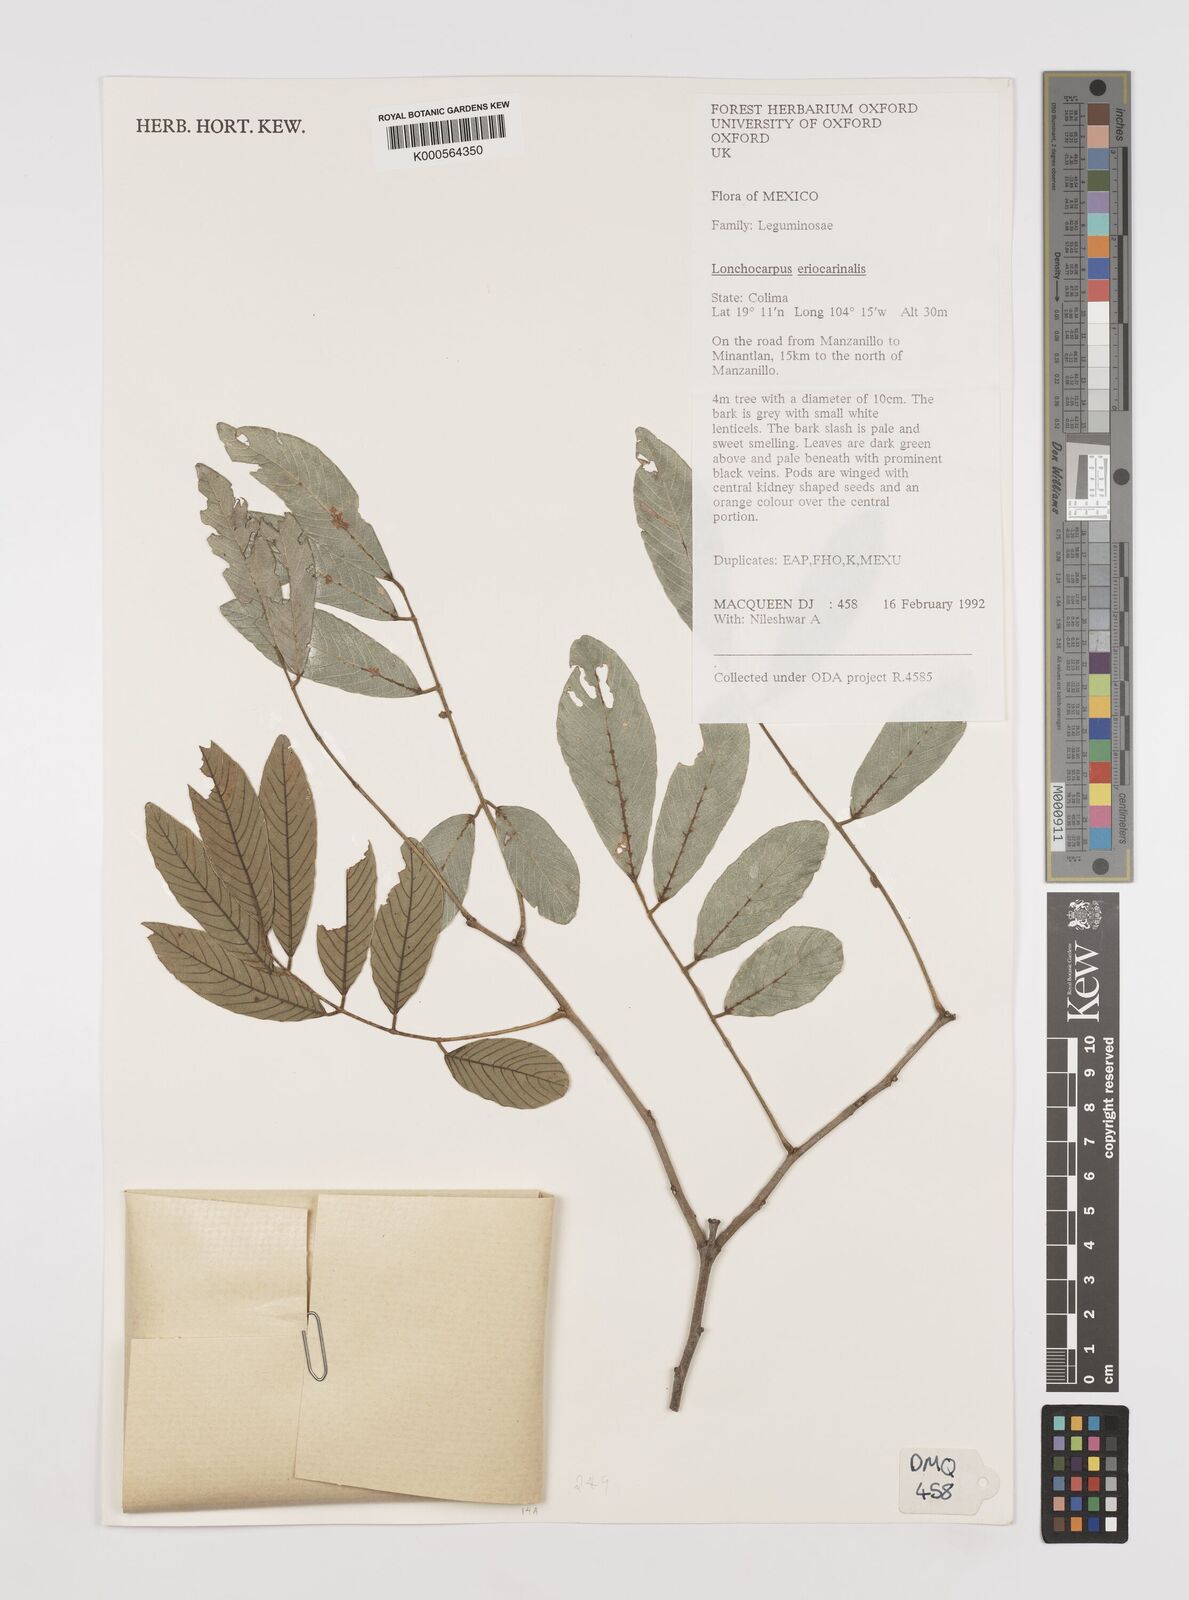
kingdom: Plantae
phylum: Tracheophyta
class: Magnoliopsida
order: Fabales
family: Fabaceae
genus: Lonchocarpus
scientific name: Lonchocarpus eriocarinalis
